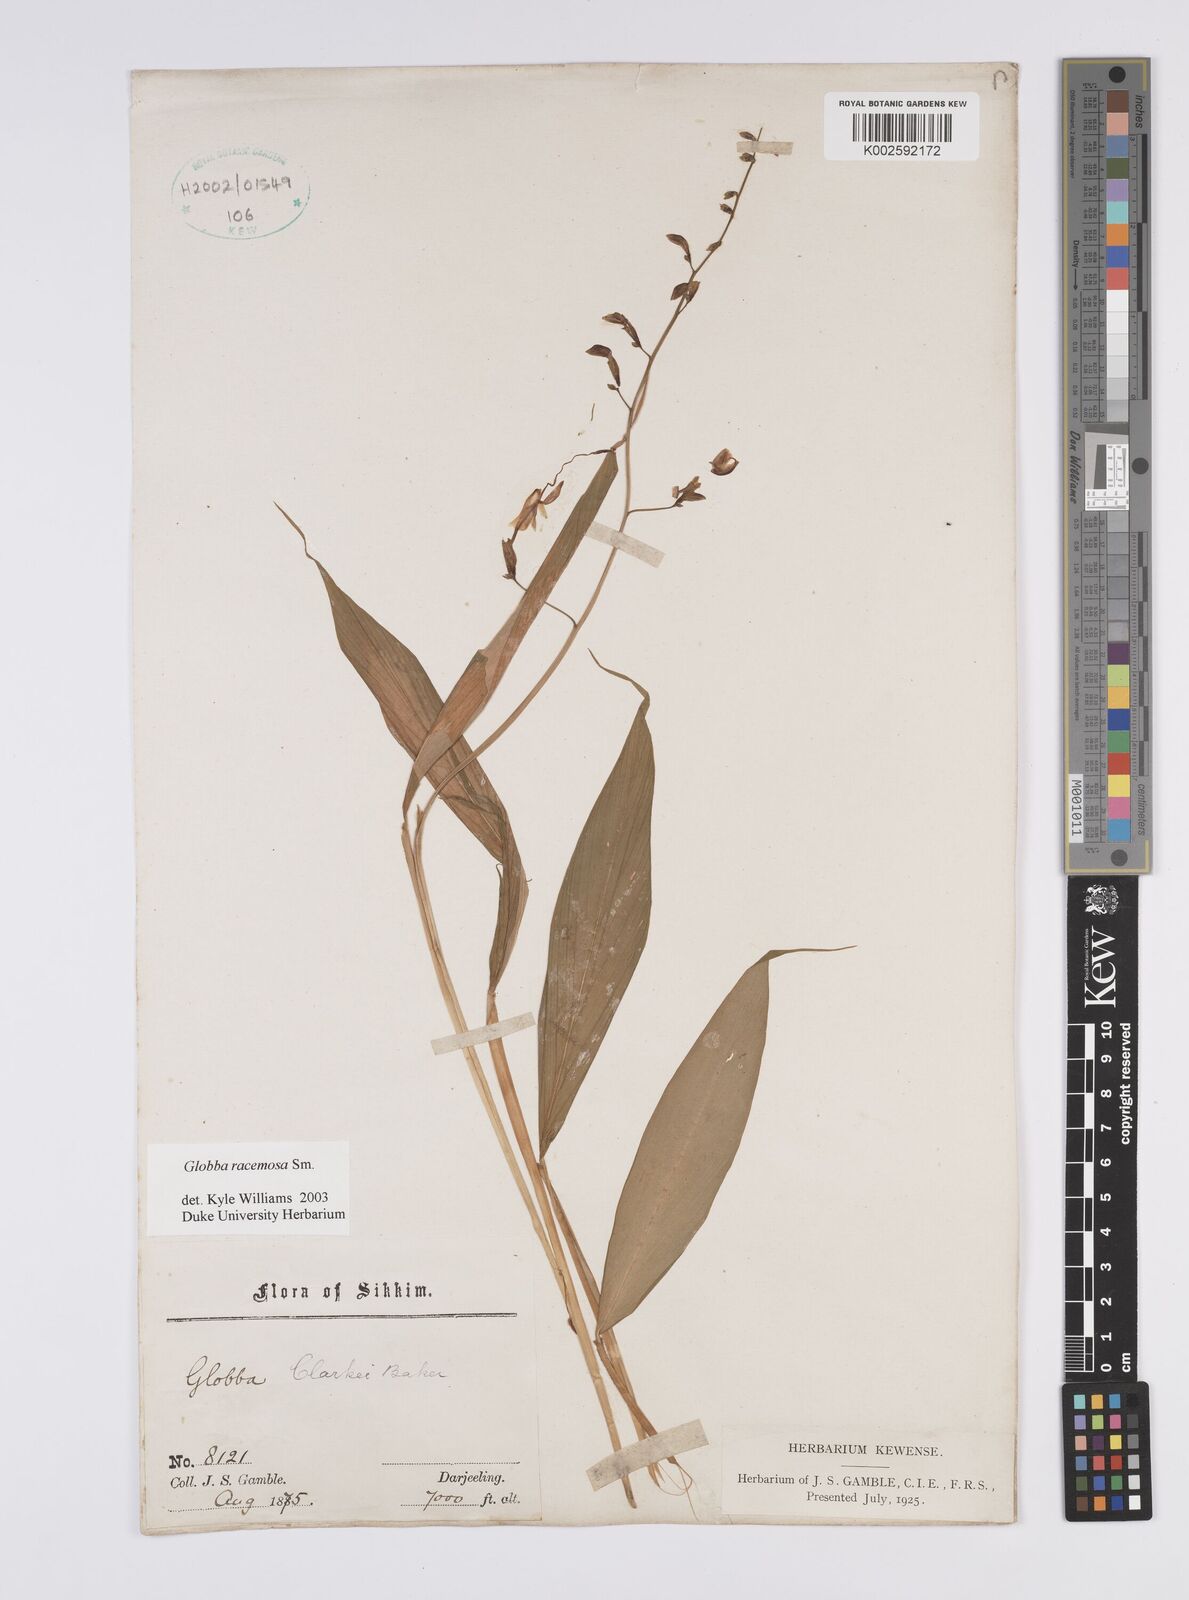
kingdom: Plantae
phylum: Tracheophyta
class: Liliopsida
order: Zingiberales
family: Zingiberaceae
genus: Globba
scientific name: Globba racemosa
